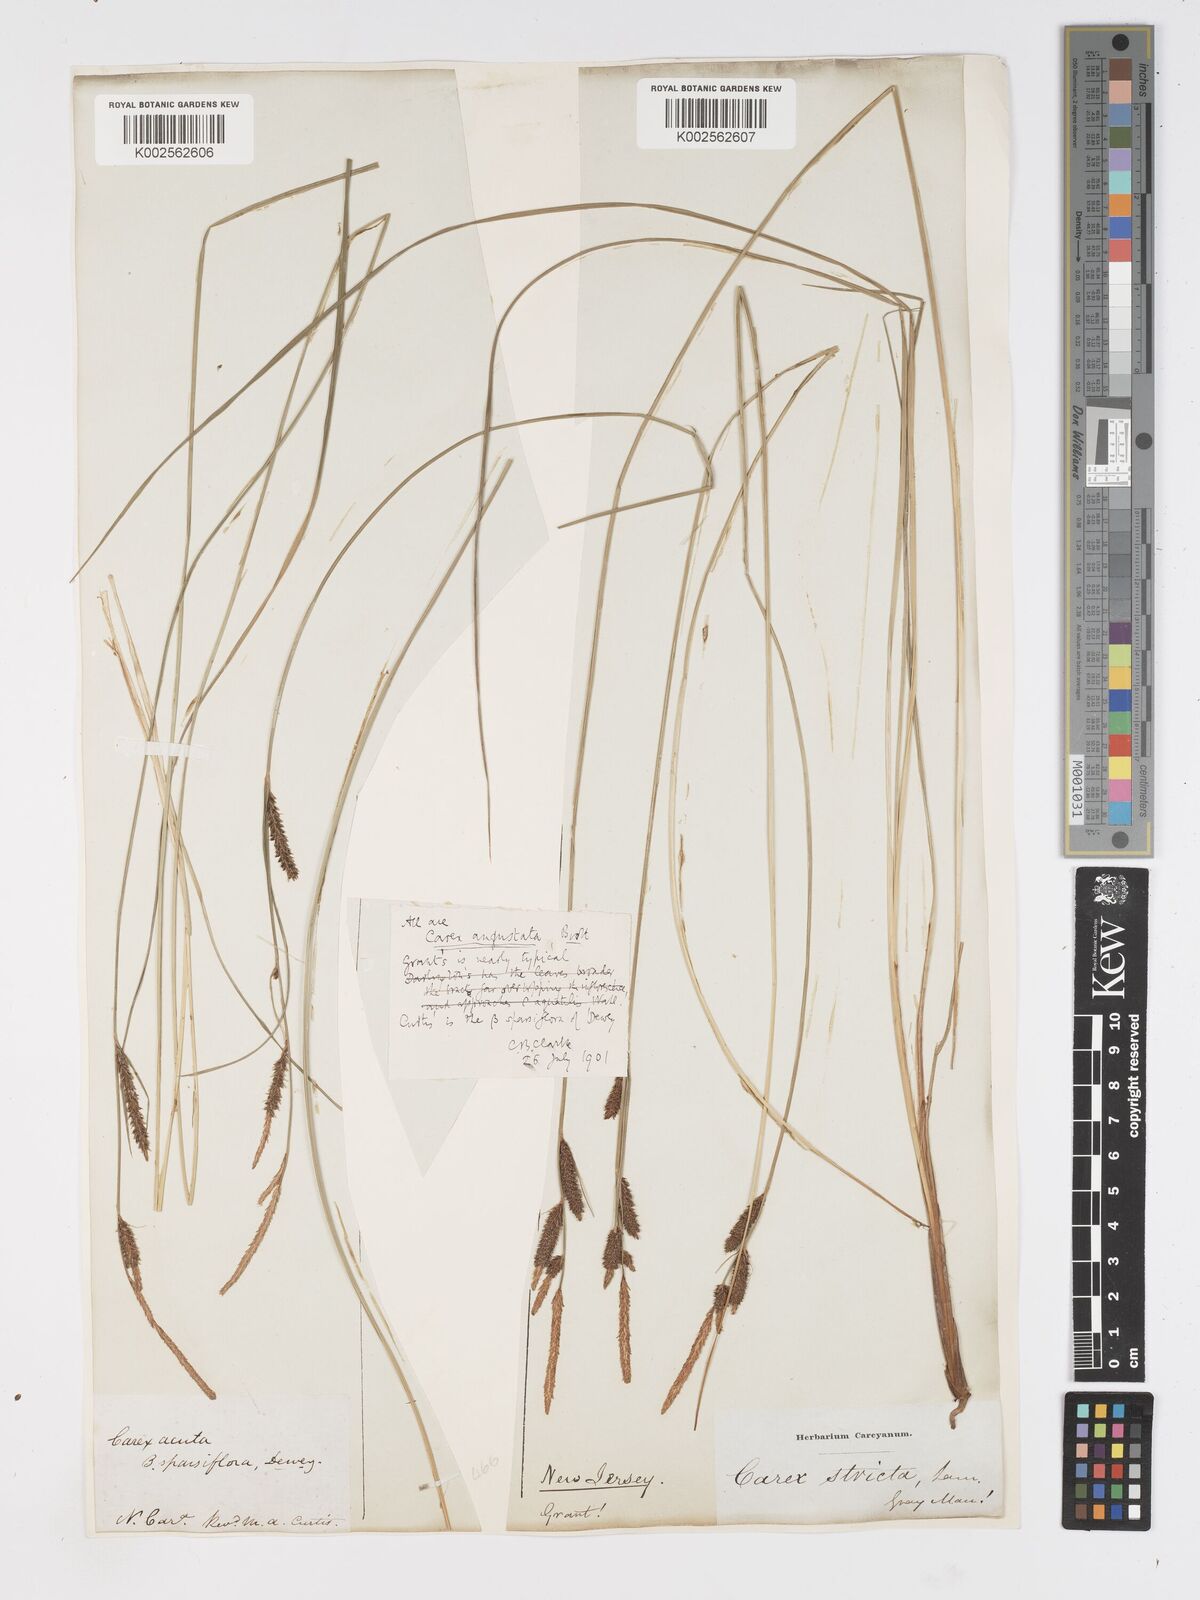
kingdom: Plantae
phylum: Tracheophyta
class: Liliopsida
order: Poales
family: Cyperaceae
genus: Carex
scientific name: Carex stricta
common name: Hummock sedge
